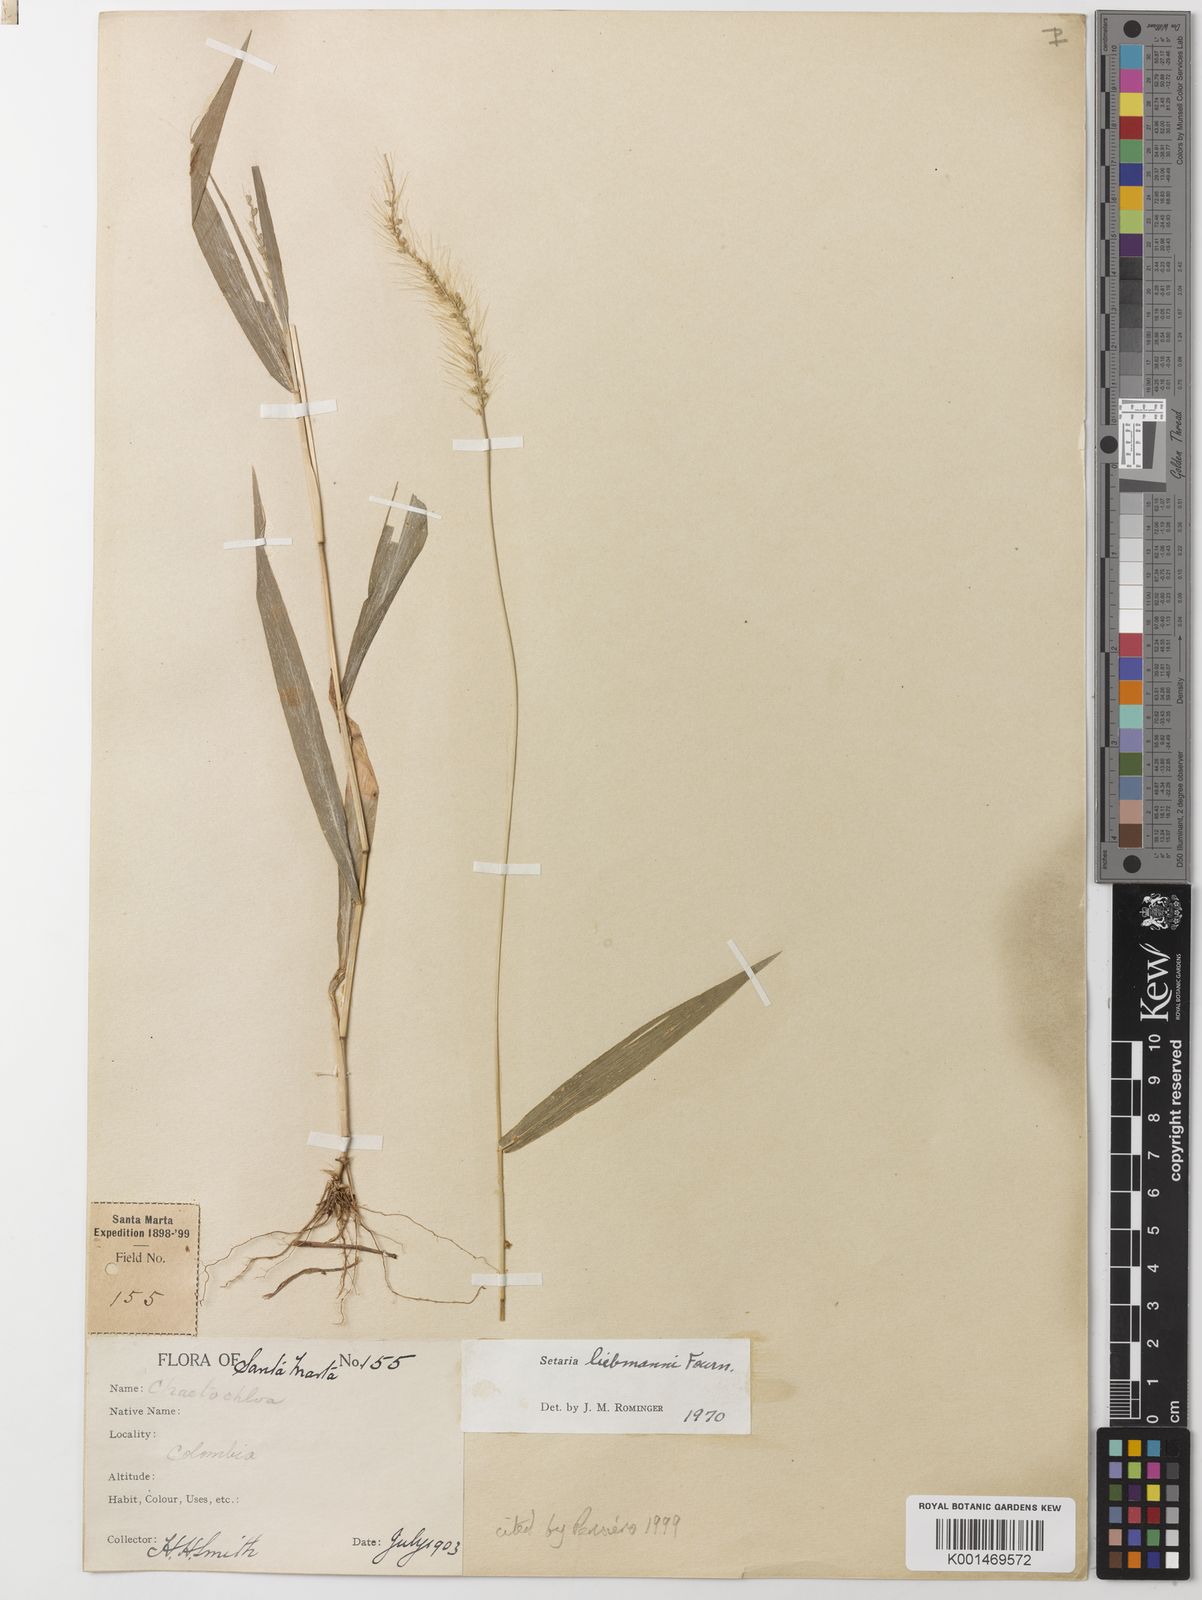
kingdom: Plantae
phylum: Tracheophyta
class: Liliopsida
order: Poales
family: Poaceae
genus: Setaria
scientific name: Setaria liebmannii
